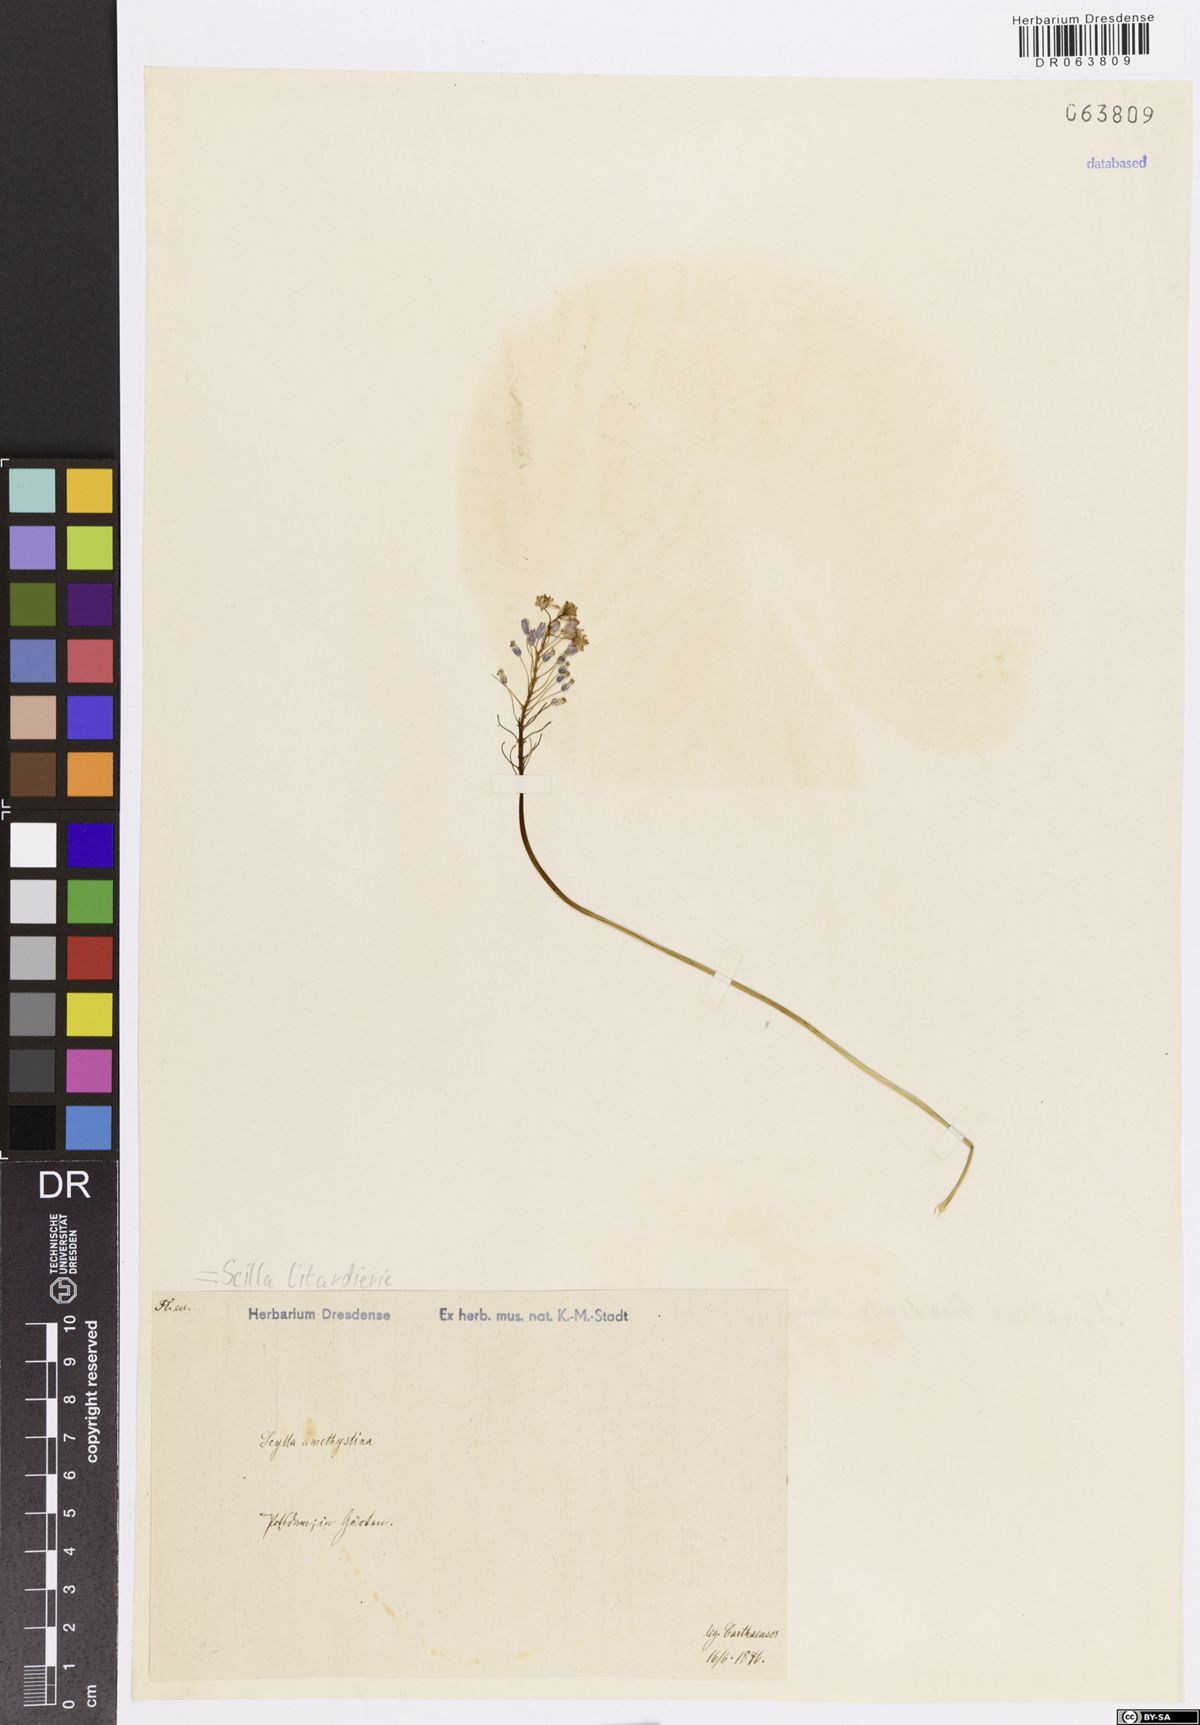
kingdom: Plantae
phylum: Tracheophyta
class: Liliopsida
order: Asparagales
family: Asparagaceae
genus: Scilla
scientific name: Scilla litardierei
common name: Amethyst meadow squill
